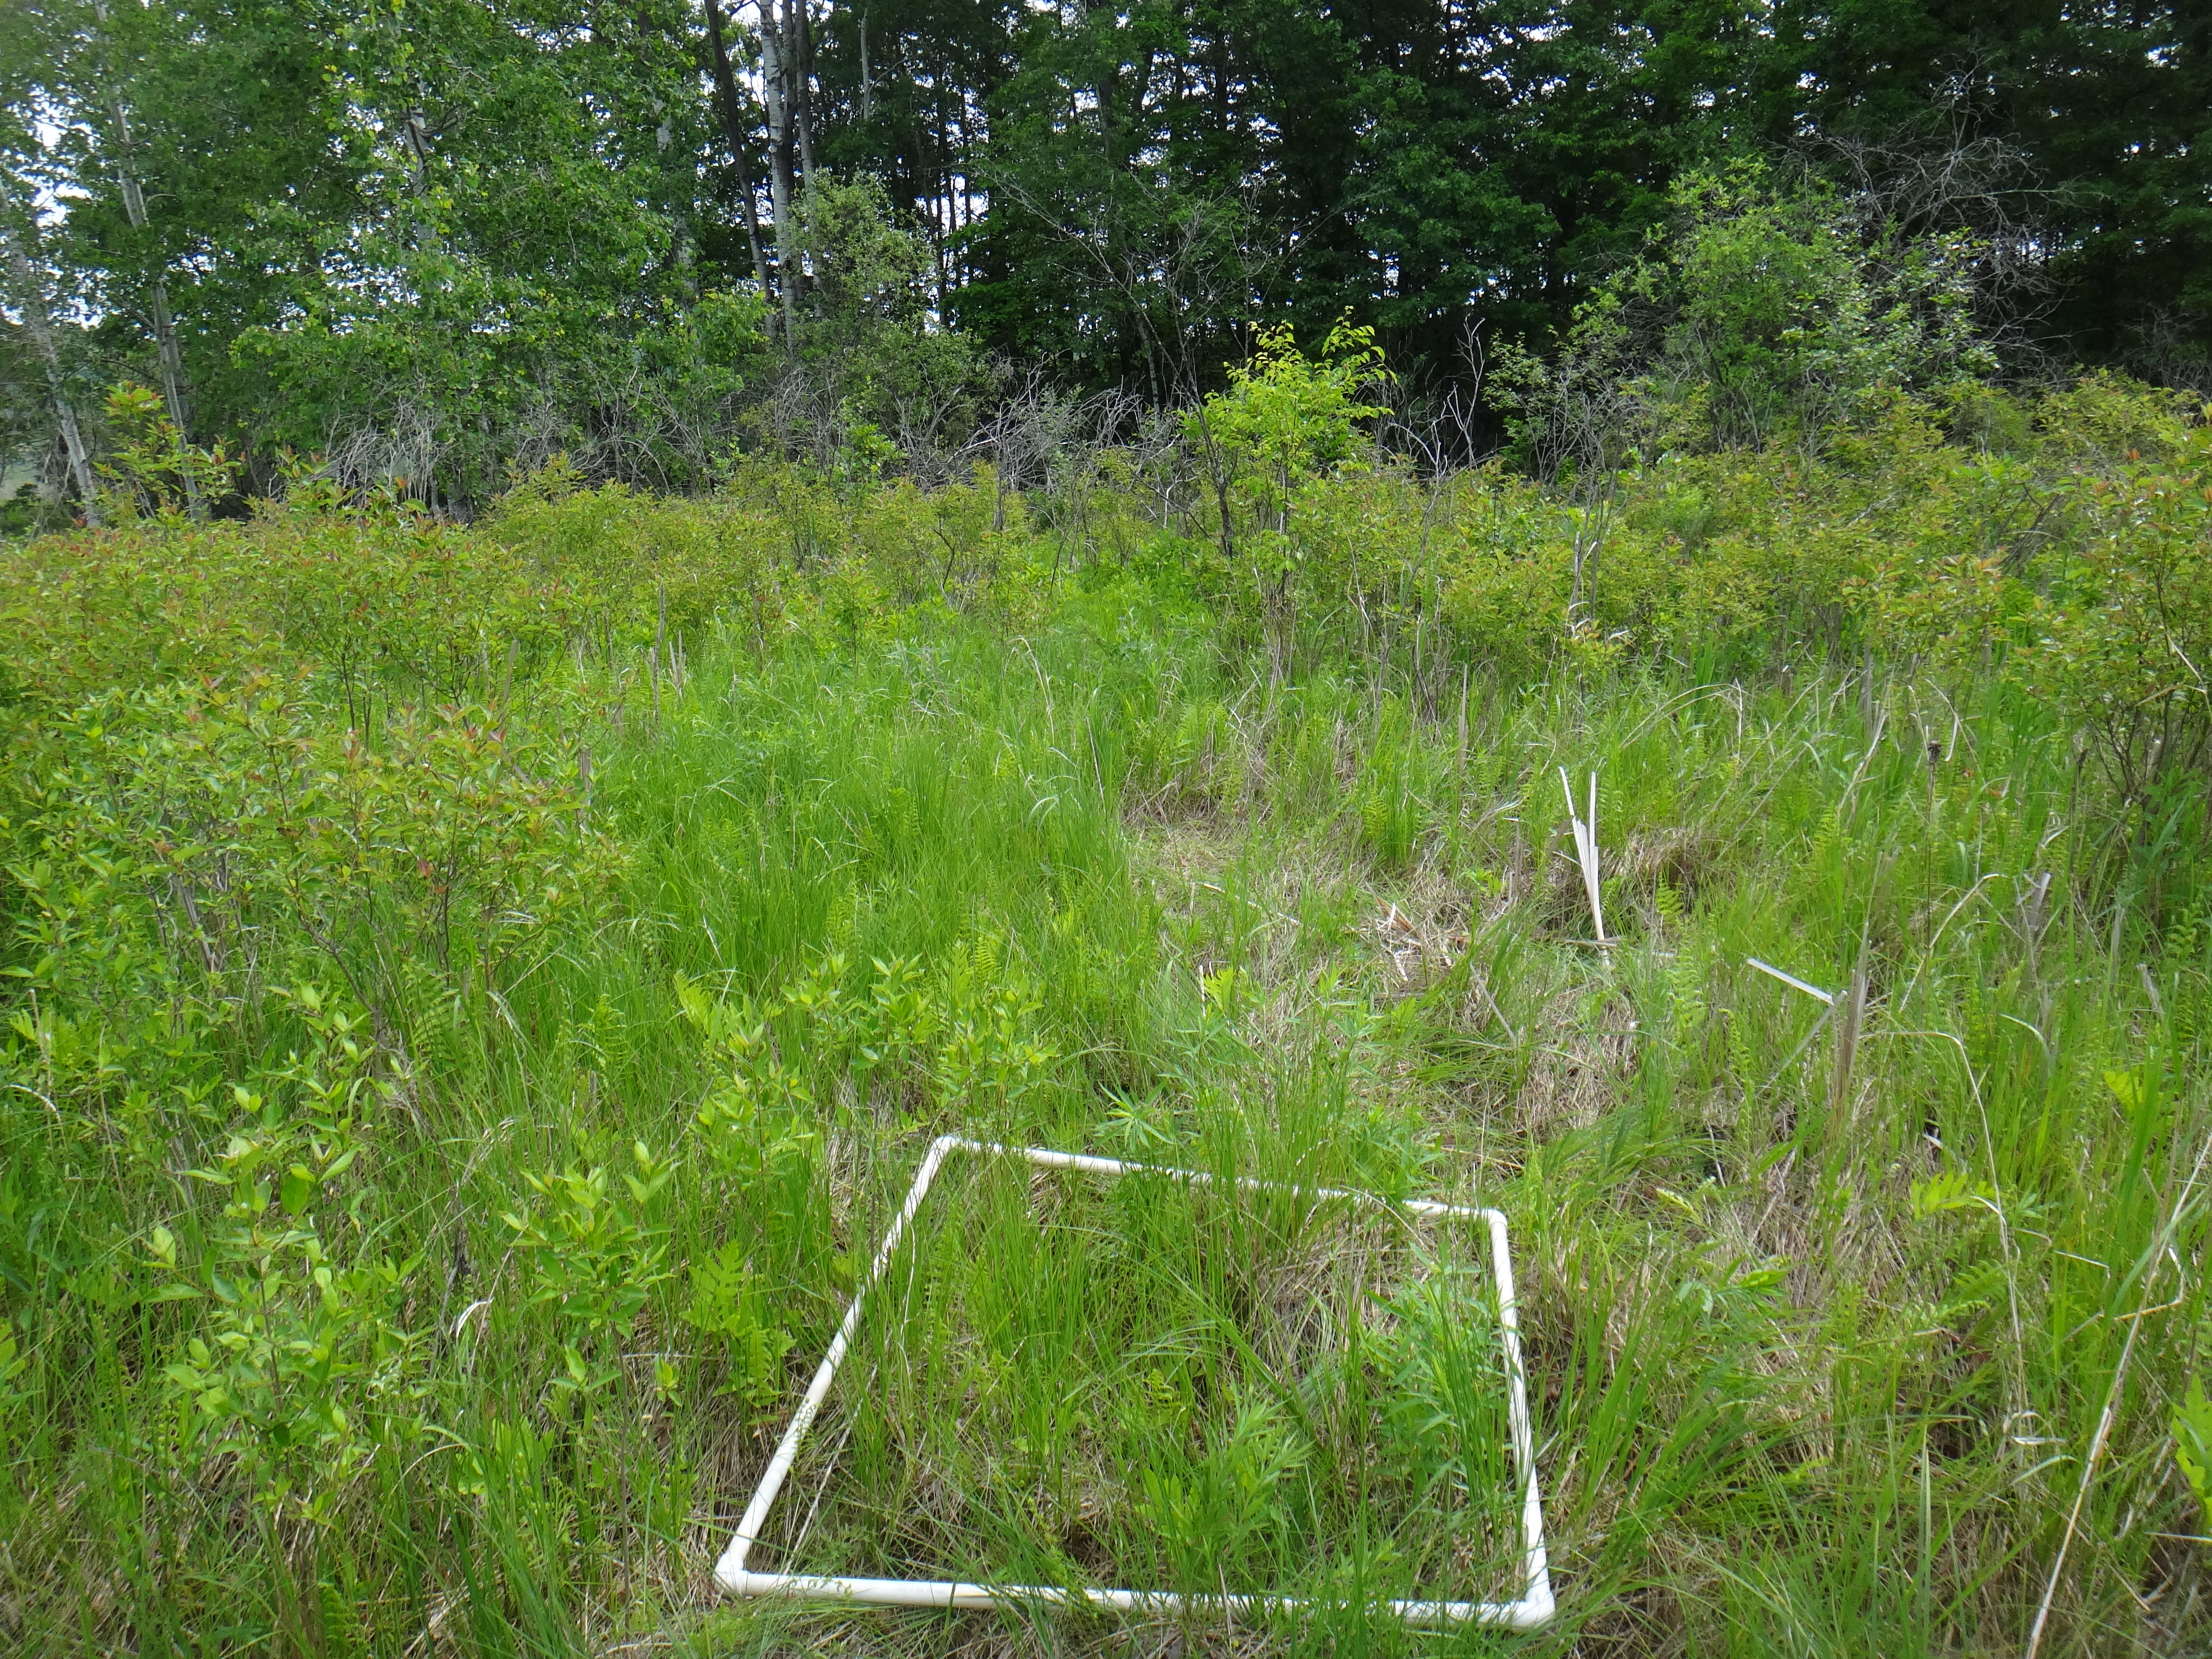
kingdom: Plantae
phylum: Tracheophyta
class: Magnoliopsida
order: Lamiales
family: Lamiaceae
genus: Pycnanthemum
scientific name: Pycnanthemum virginianum
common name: Virginia mountain-mint
